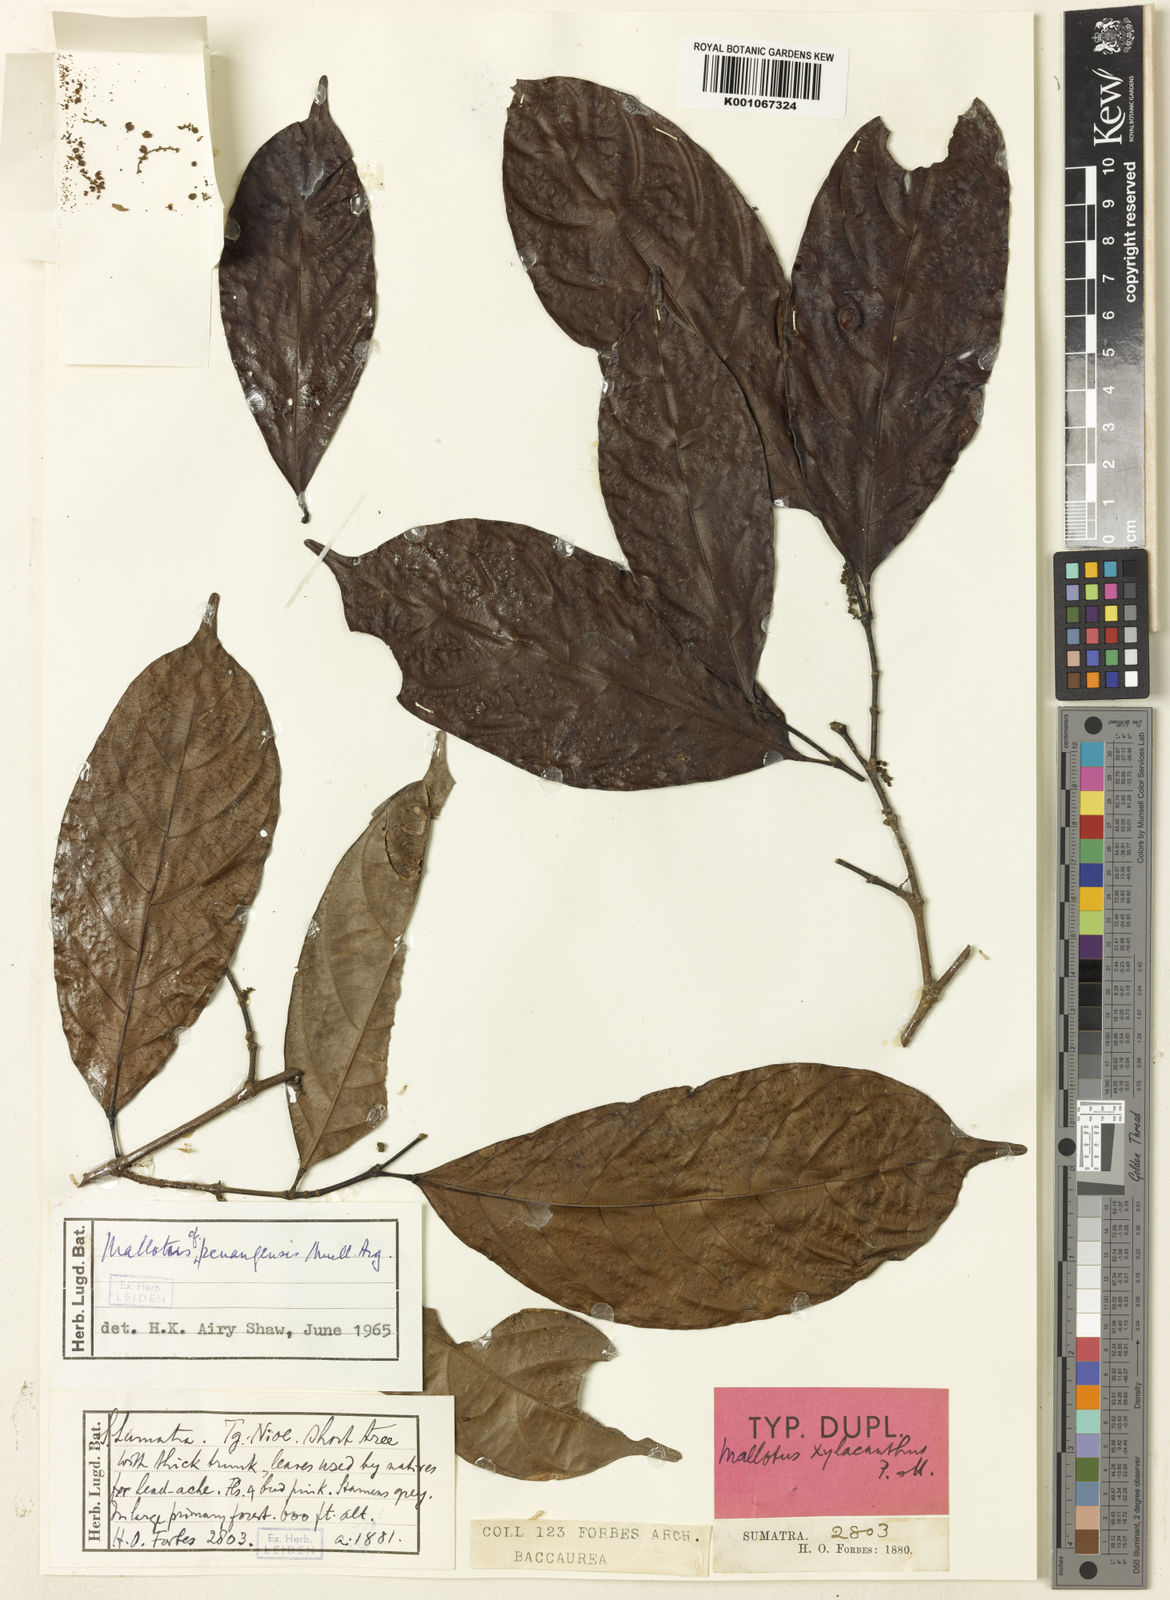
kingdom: Plantae
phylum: Tracheophyta
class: Magnoliopsida
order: Malpighiales
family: Euphorbiaceae
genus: Hancea
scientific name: Hancea penangensis
